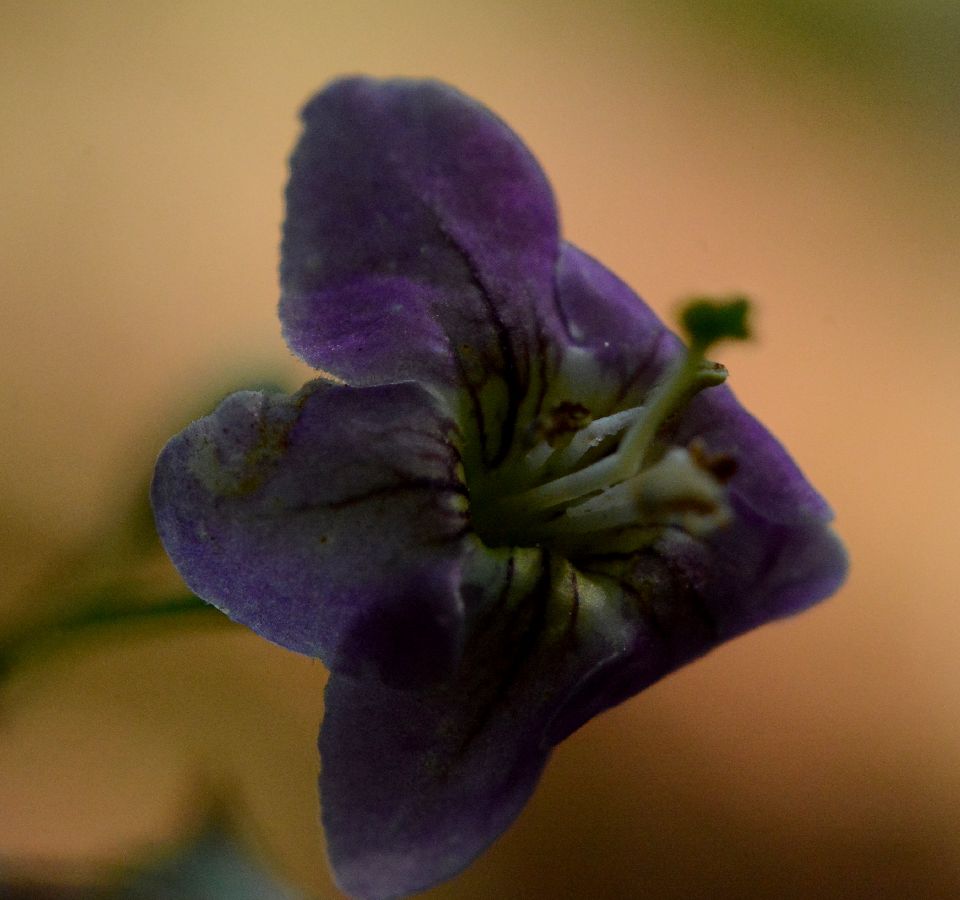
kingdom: Plantae
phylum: Tracheophyta
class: Magnoliopsida
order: Solanales
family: Solanaceae
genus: Lycium
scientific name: Lycium barbarum
